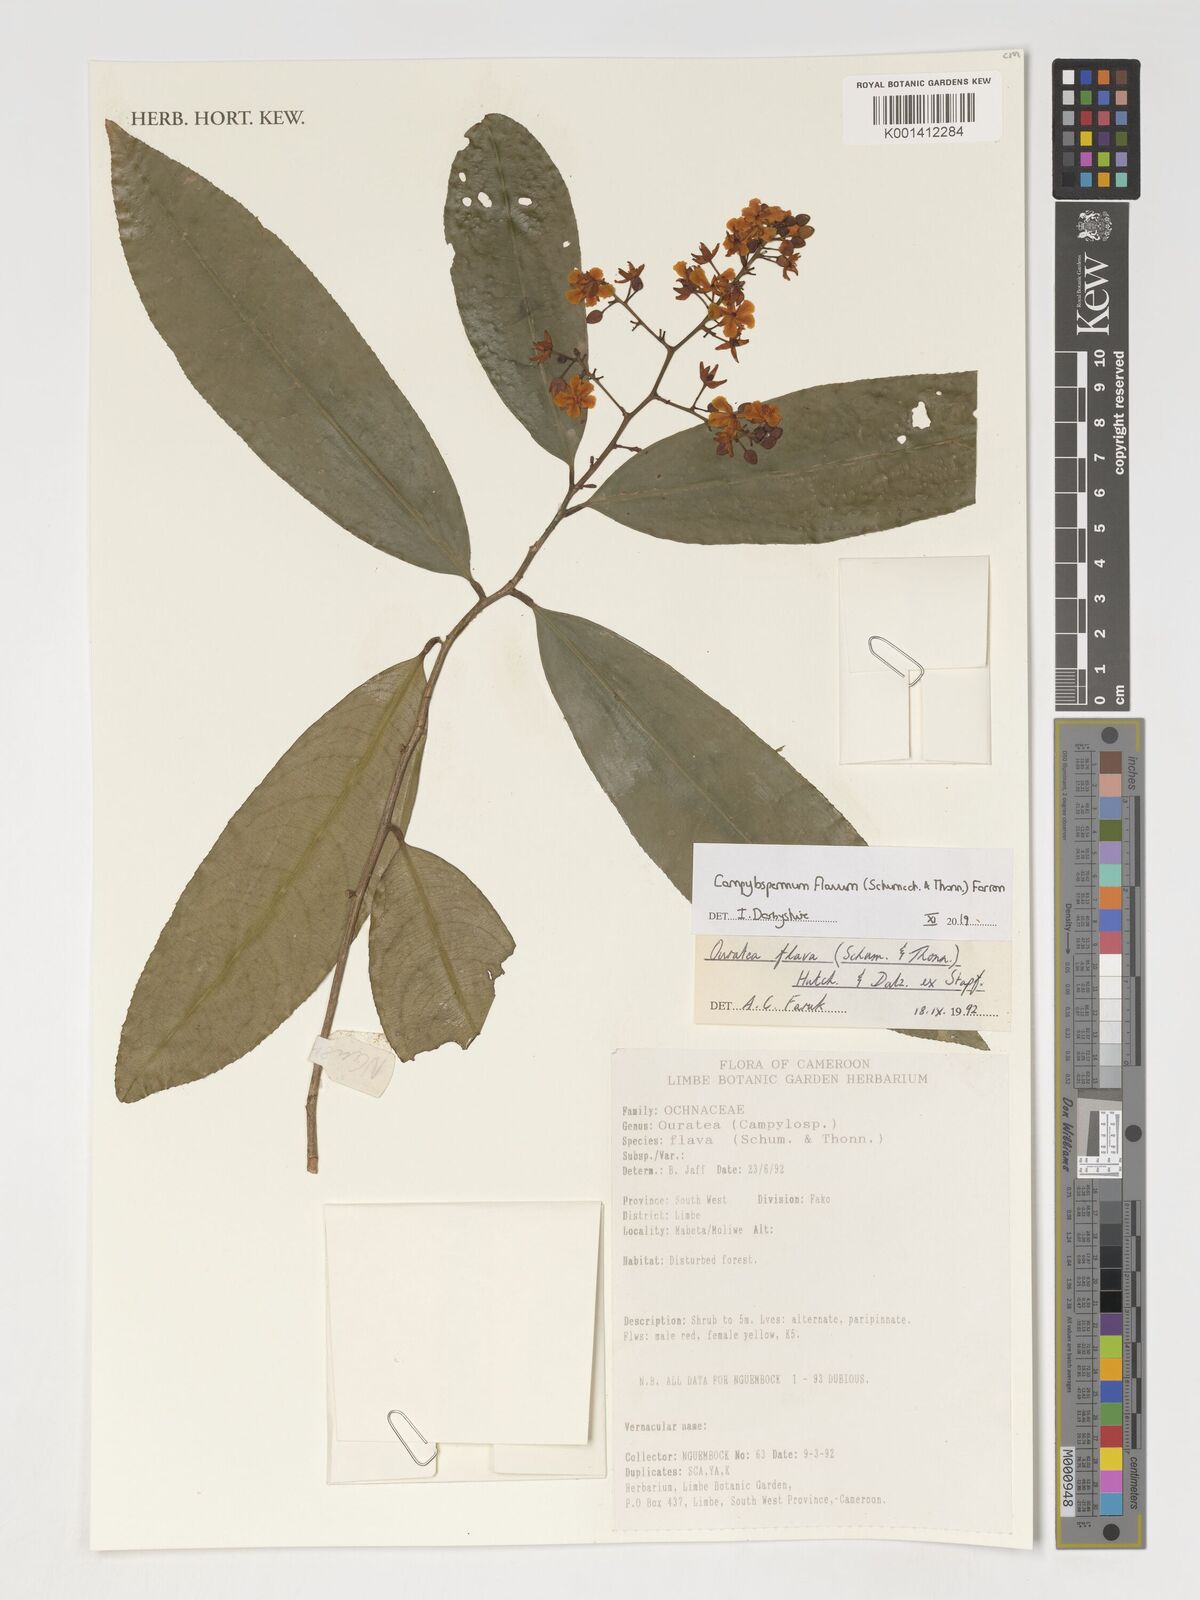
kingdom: Plantae
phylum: Tracheophyta
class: Magnoliopsida
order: Malpighiales
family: Ochnaceae
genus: Campylospermum
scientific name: Campylospermum flavum
